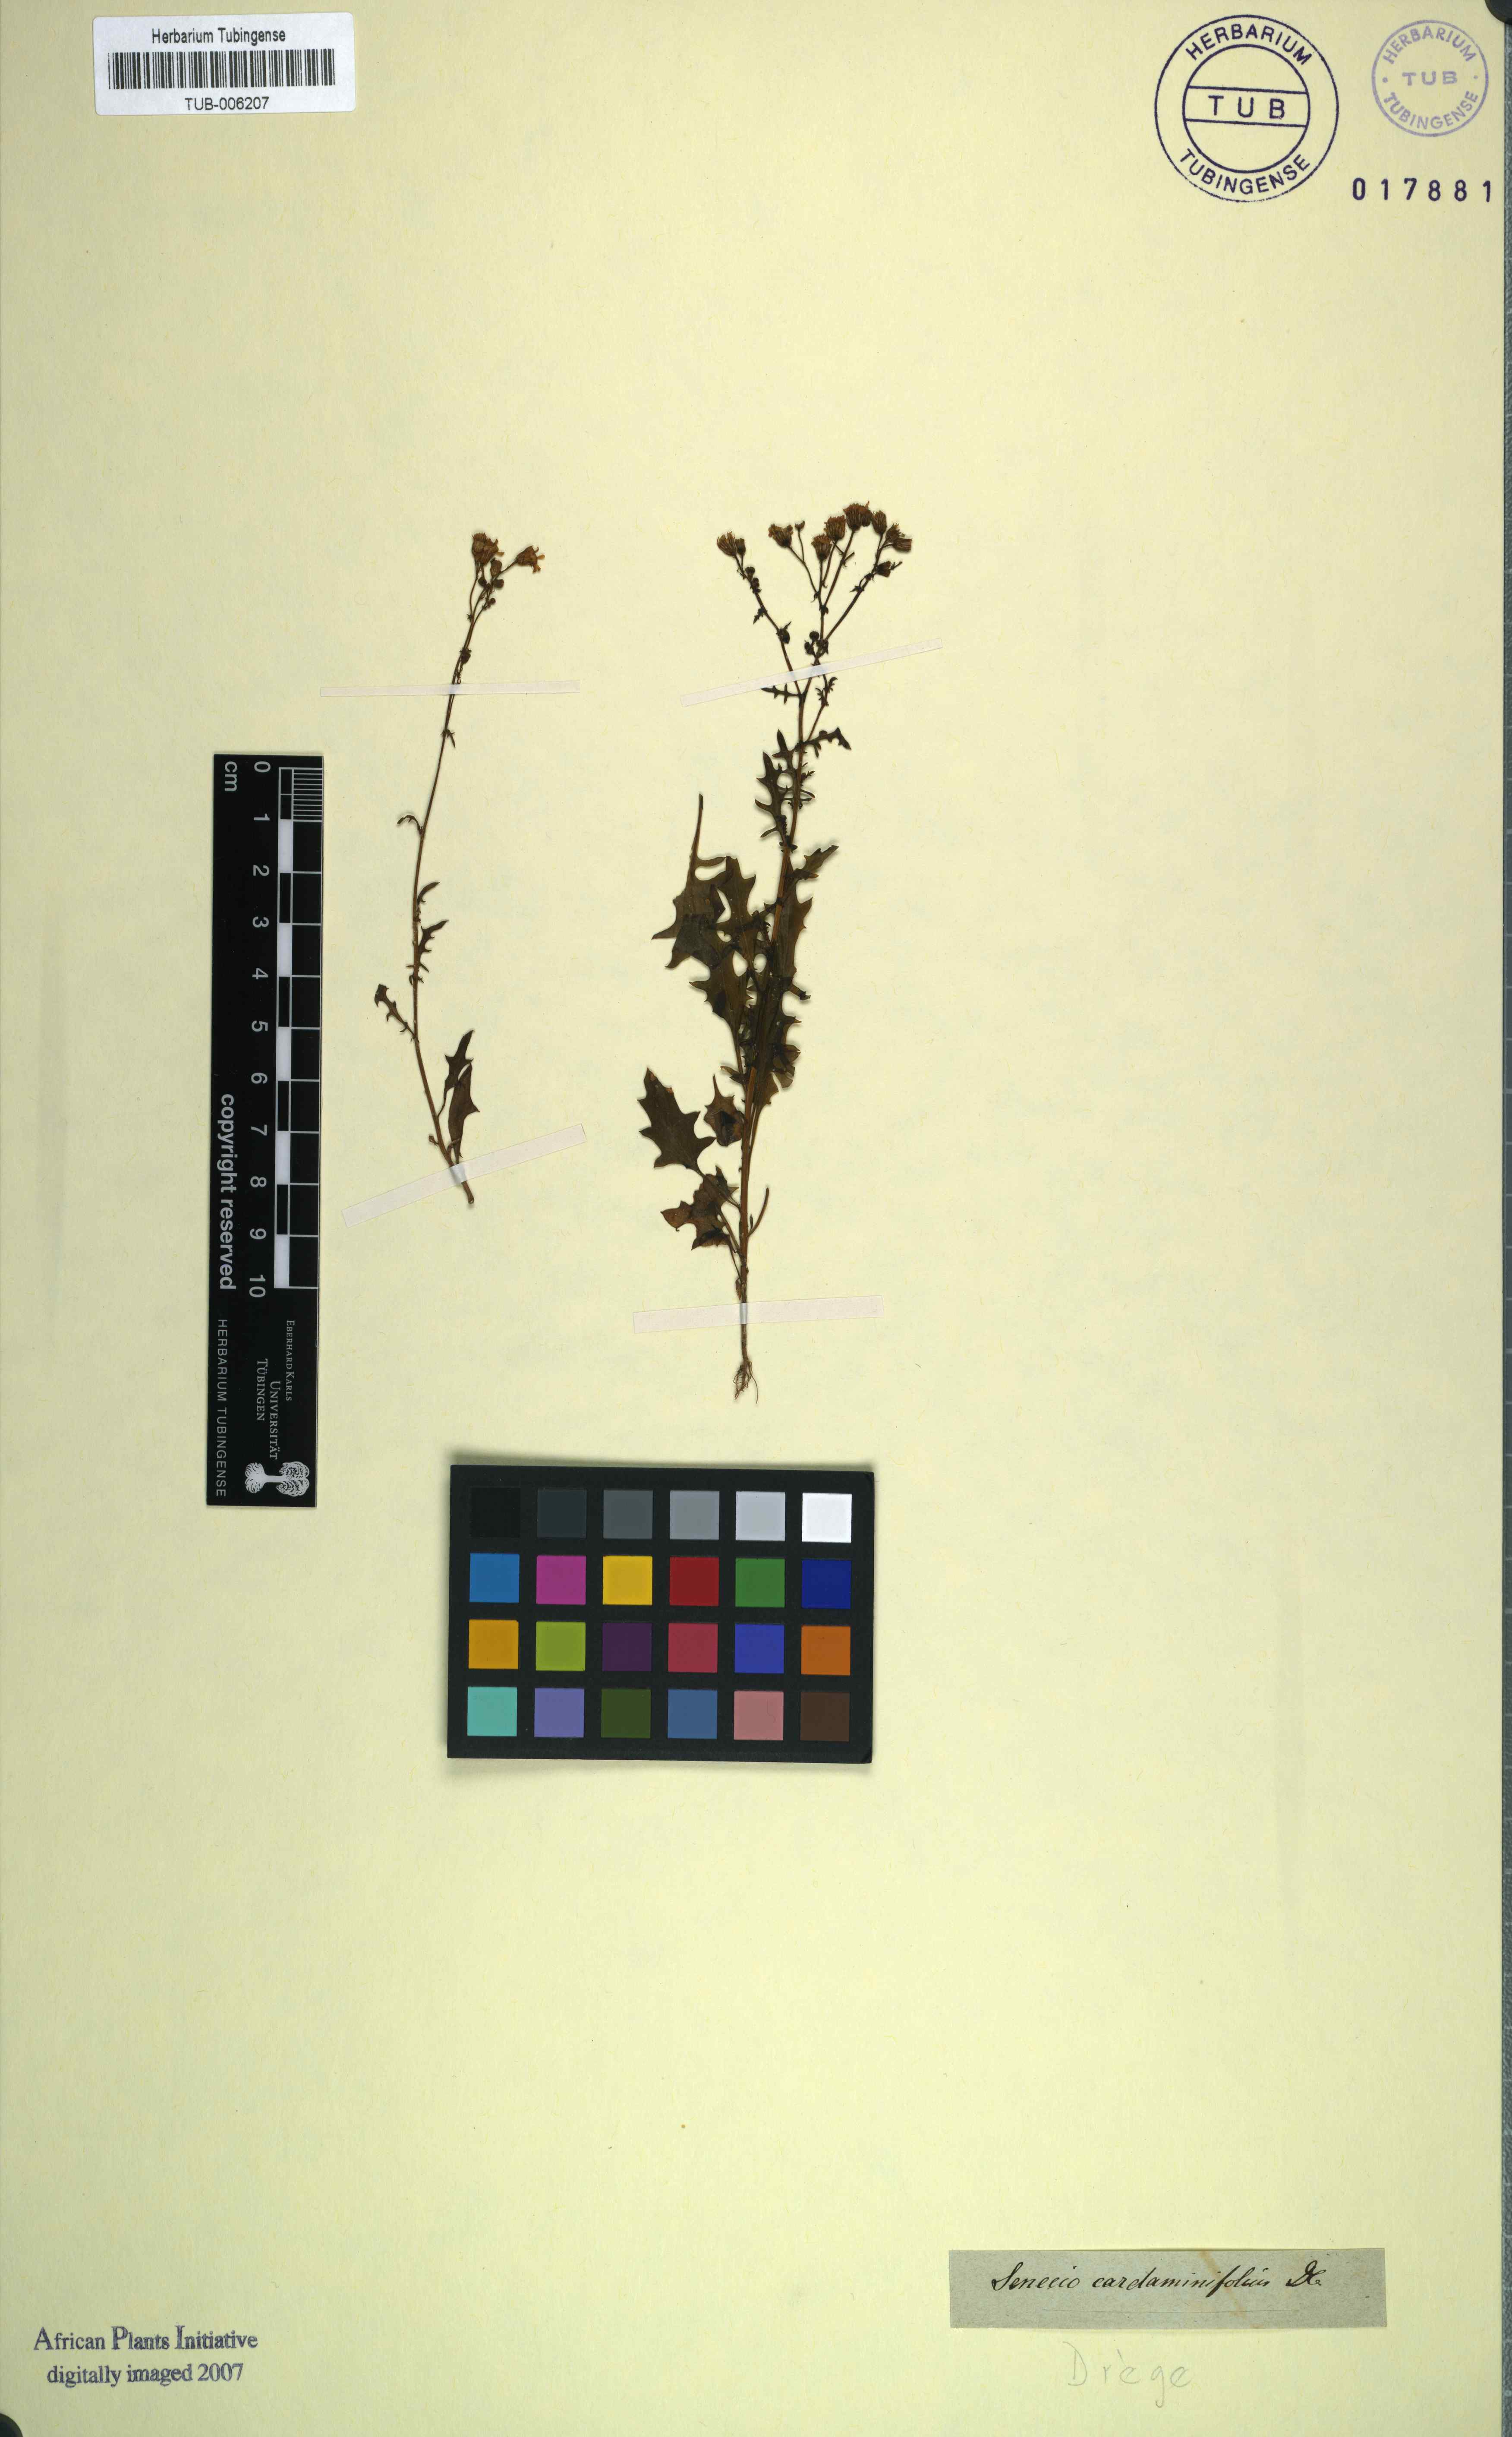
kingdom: Plantae
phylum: Tracheophyta
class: Magnoliopsida
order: Asterales
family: Asteraceae
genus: Senecio
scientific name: Senecio cardaminifolius
